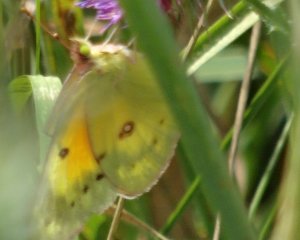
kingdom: Animalia
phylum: Arthropoda
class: Insecta
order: Lepidoptera
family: Pieridae
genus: Colias
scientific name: Colias eurytheme
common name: Orange Sulphur
